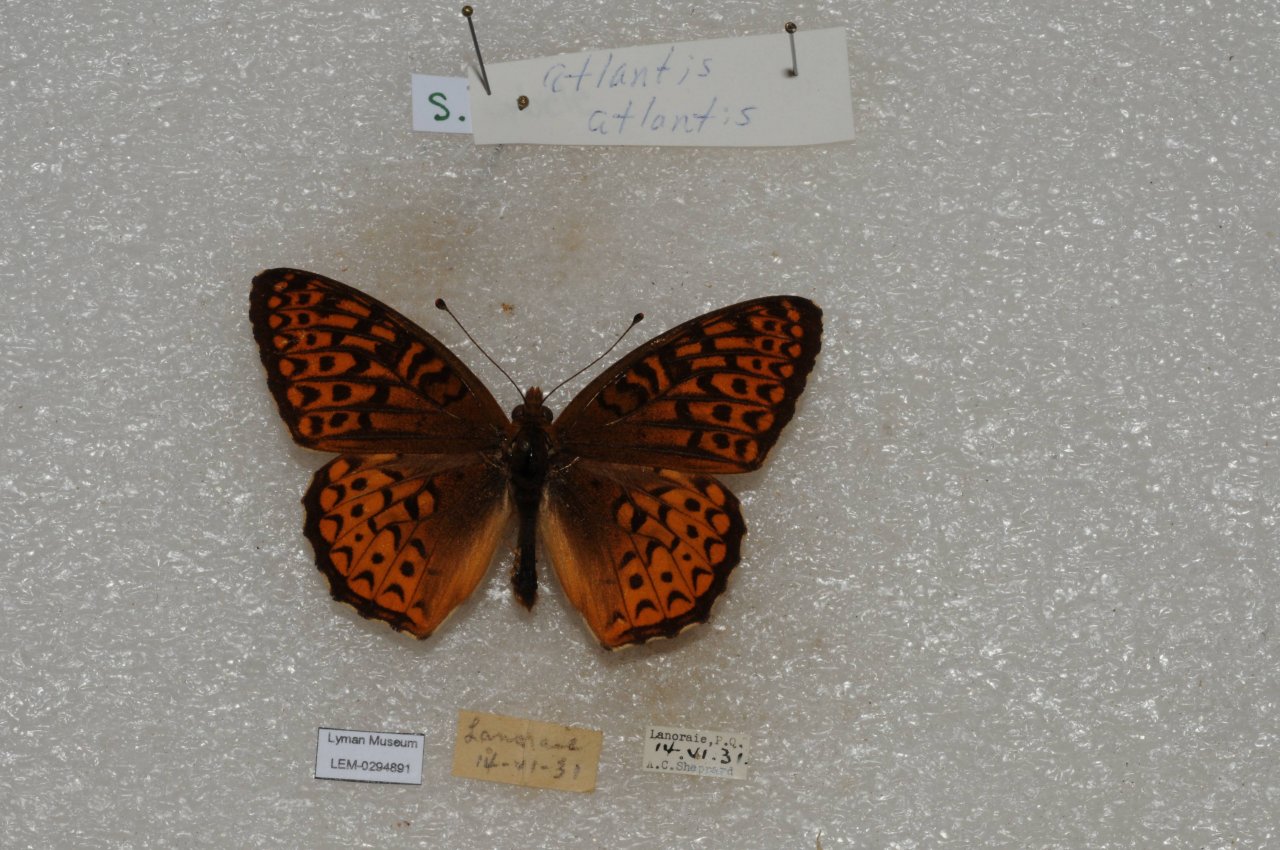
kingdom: Animalia
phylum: Arthropoda
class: Insecta
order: Lepidoptera
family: Nymphalidae
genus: Speyeria
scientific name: Speyeria atlantis
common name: Atlantis Fritillary
